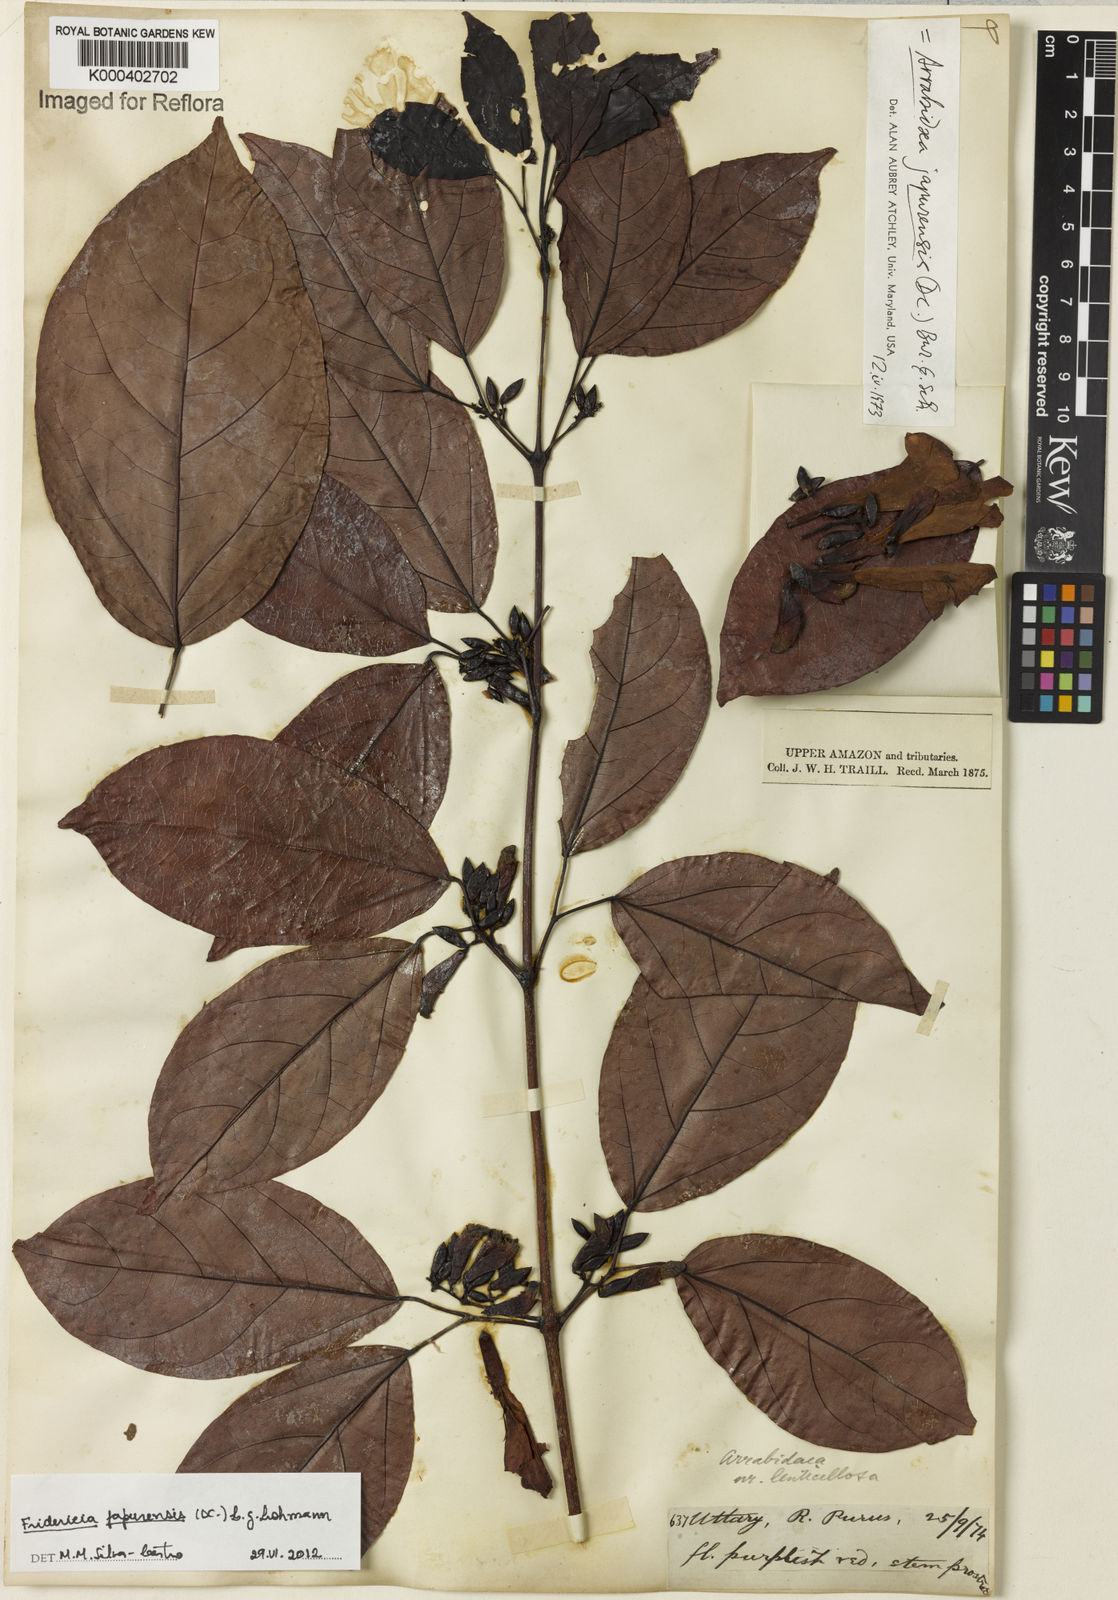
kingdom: Plantae
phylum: Tracheophyta
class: Magnoliopsida
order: Lamiales
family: Bignoniaceae
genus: Fridericia
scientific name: Fridericia japurensis
